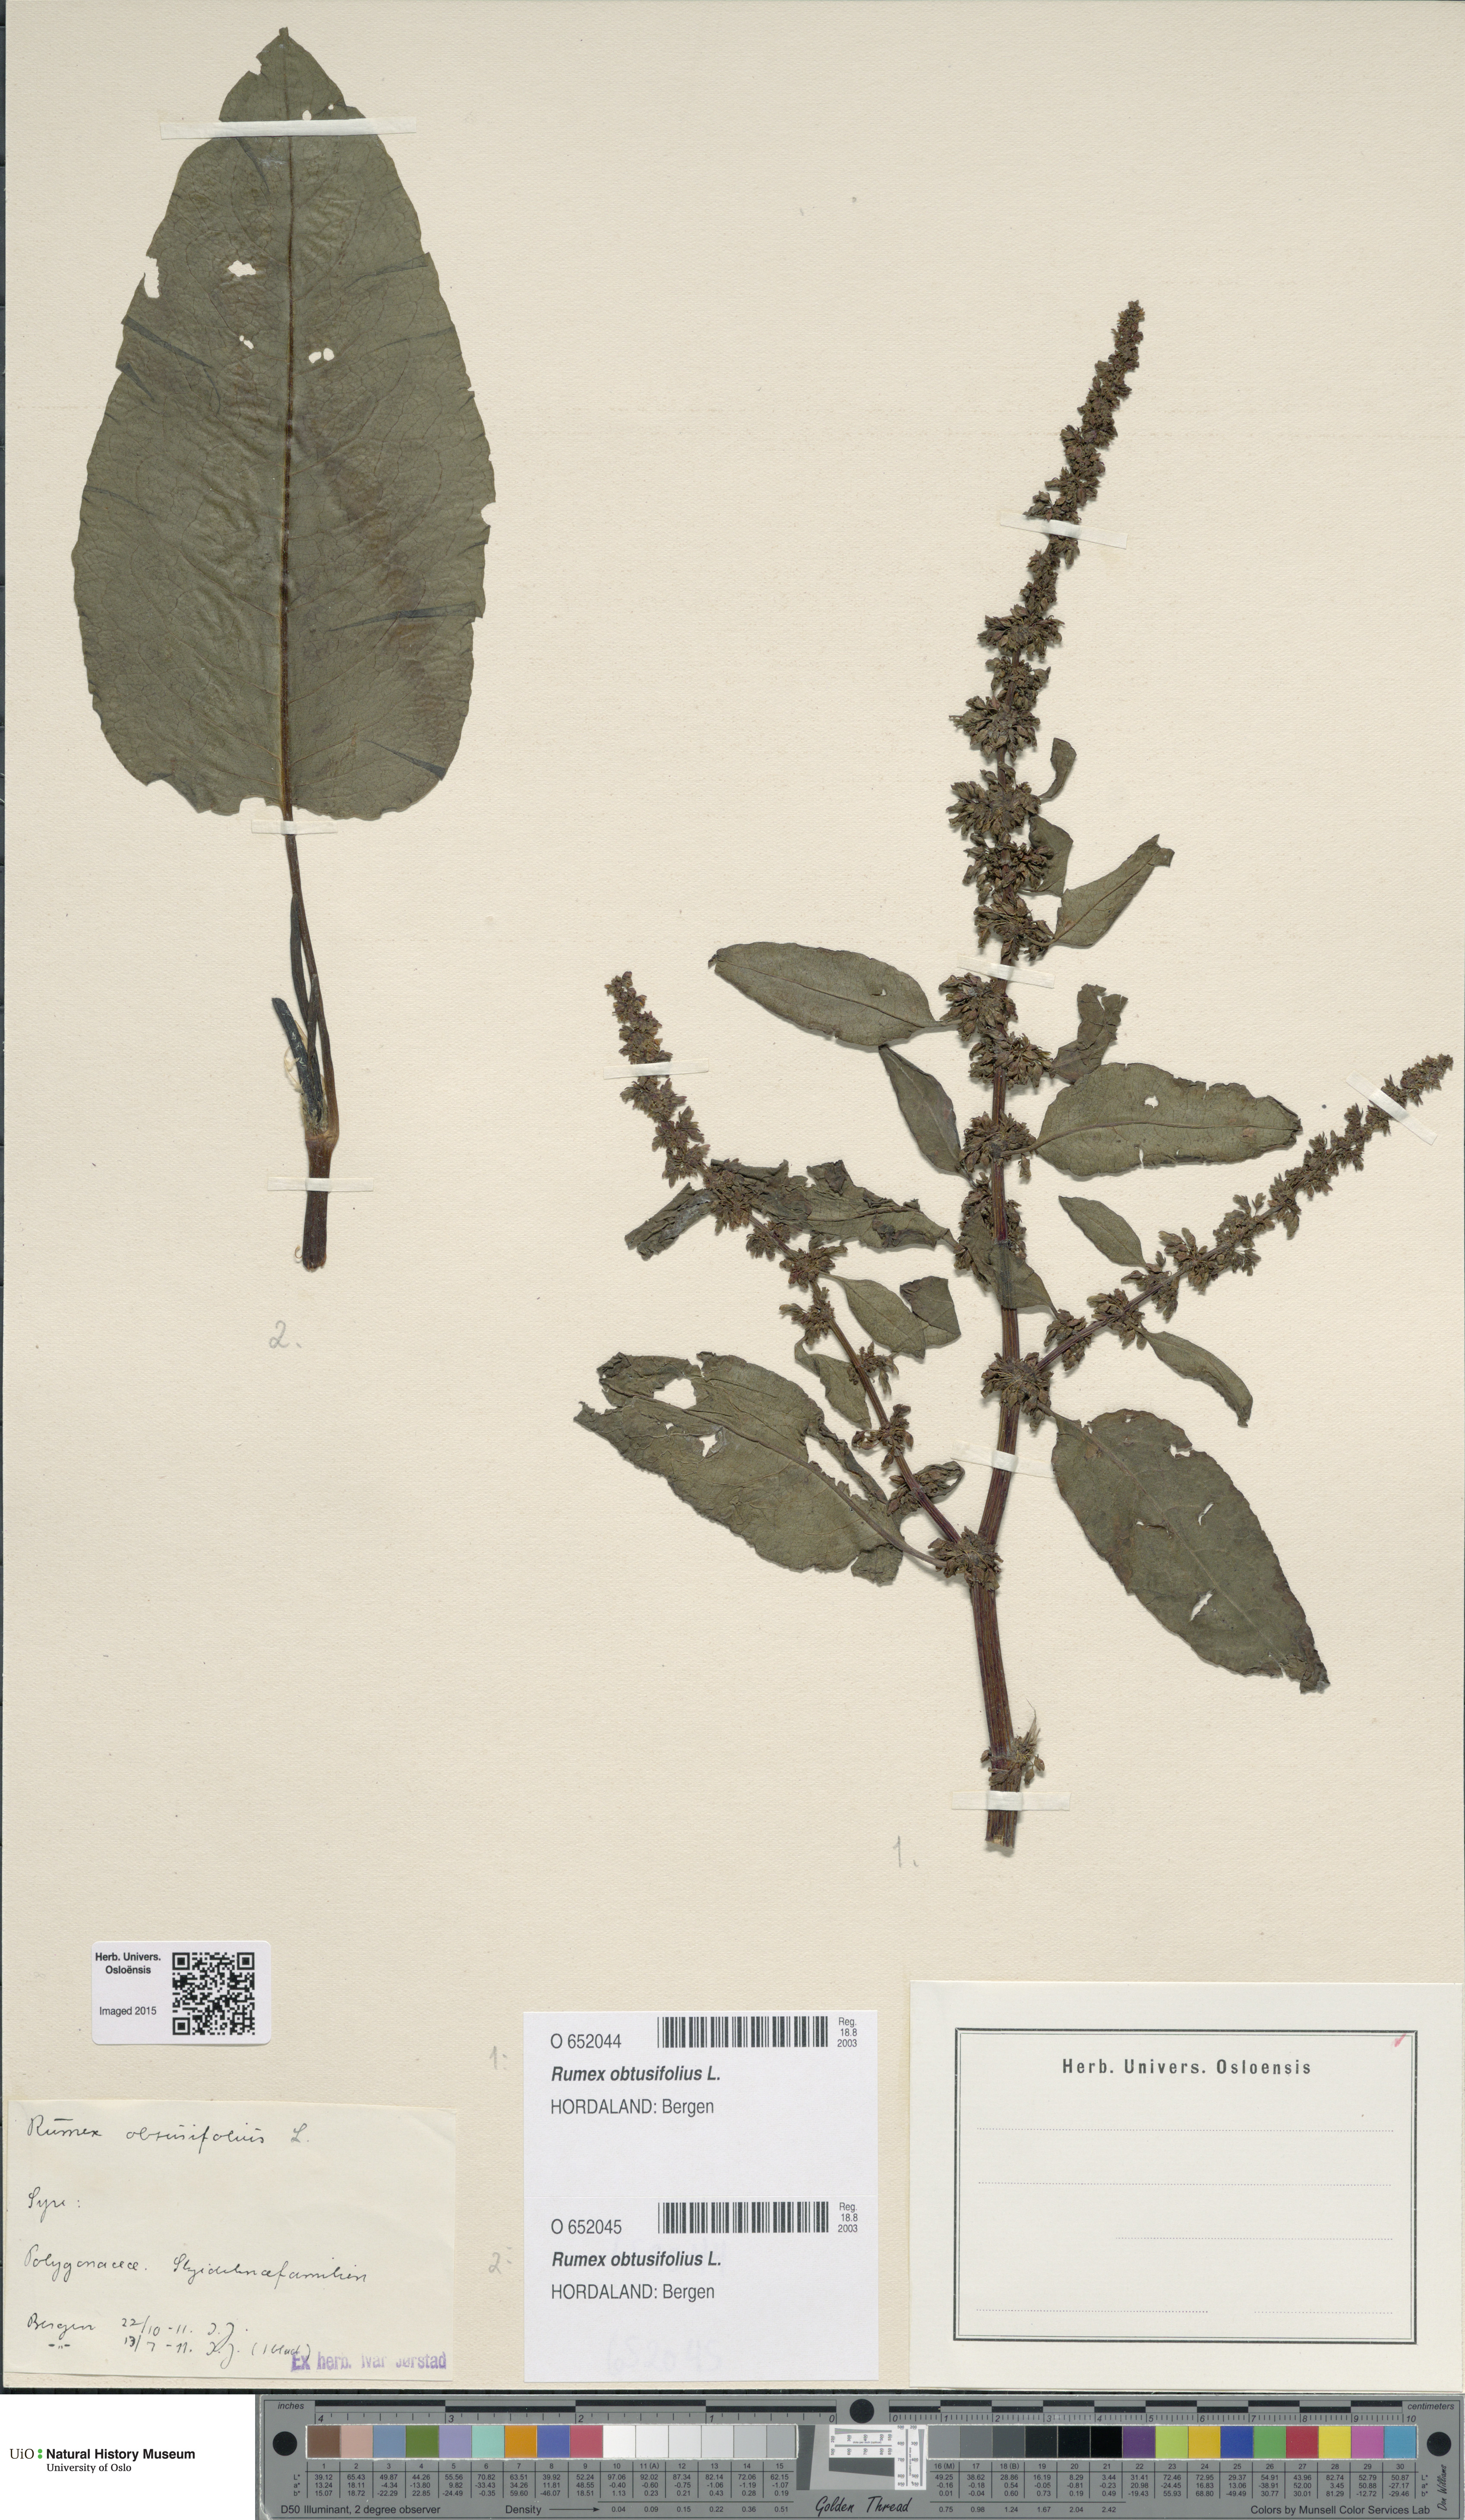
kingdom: Plantae
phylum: Tracheophyta
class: Magnoliopsida
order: Caryophyllales
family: Polygonaceae
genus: Rumex
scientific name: Rumex obtusifolius
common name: Bitter dock
